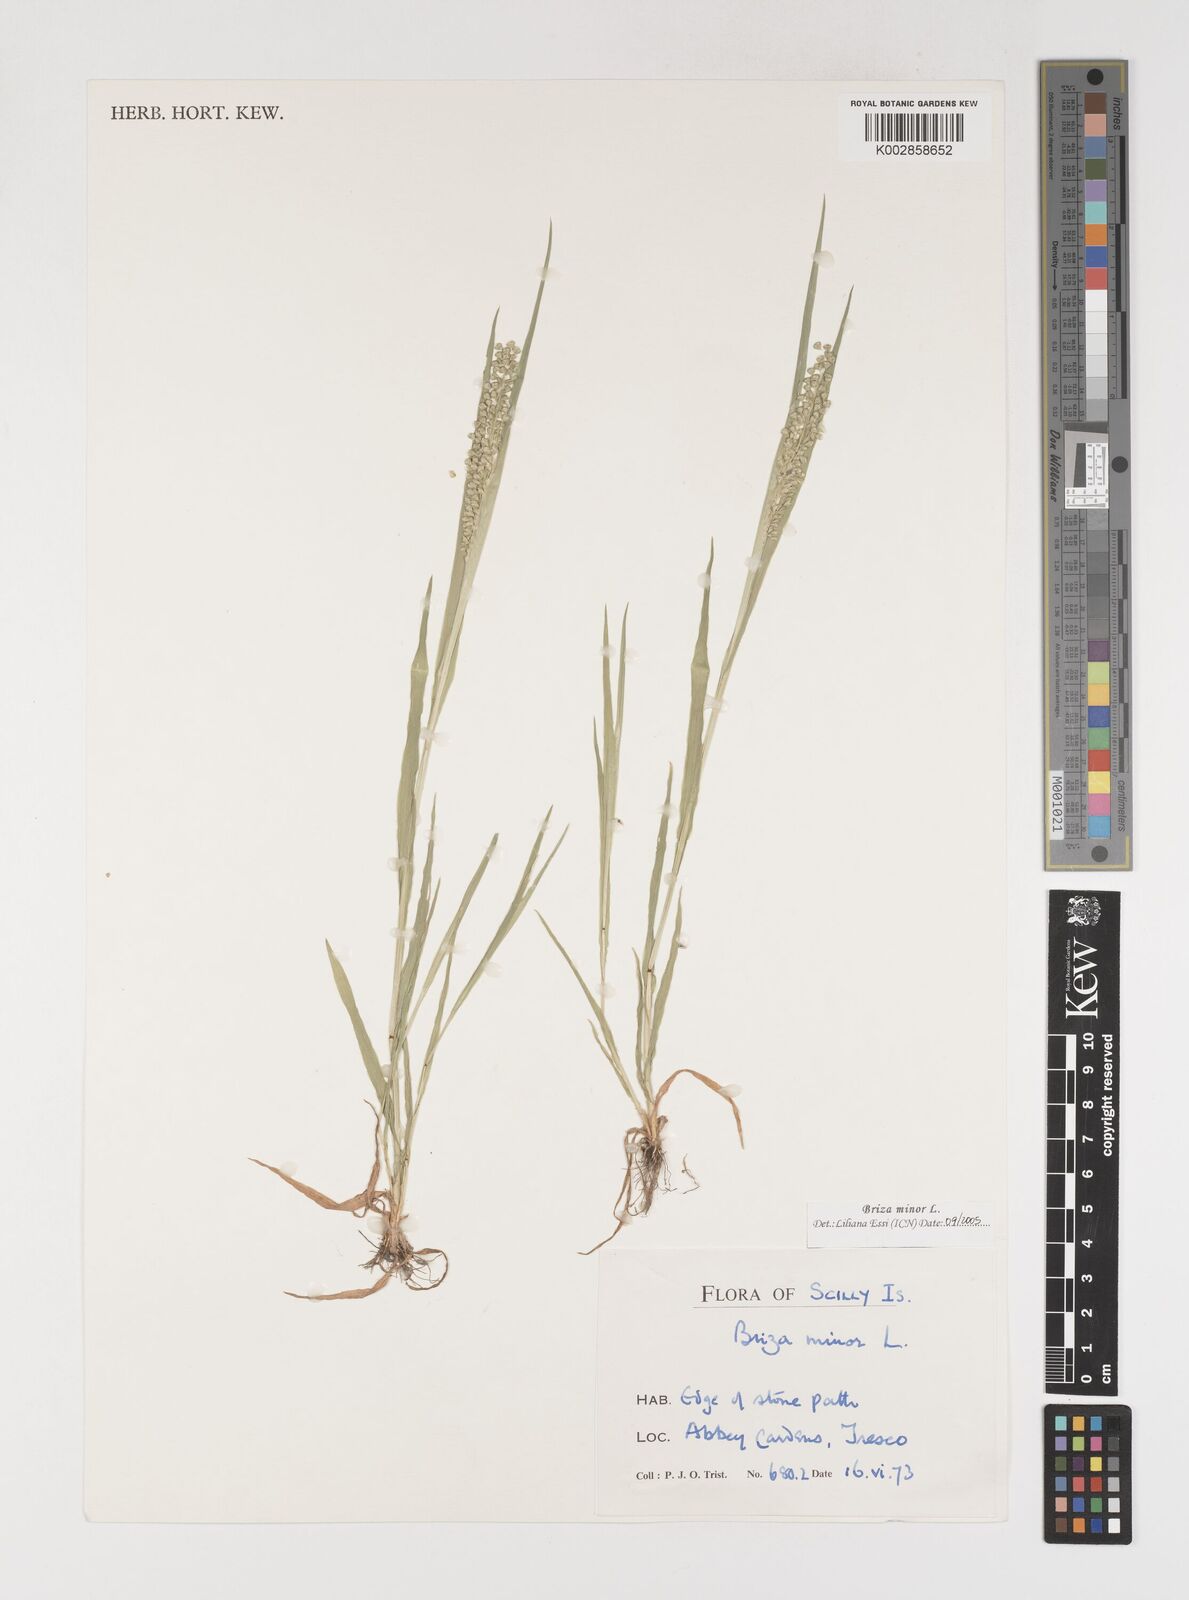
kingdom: Plantae
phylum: Tracheophyta
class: Liliopsida
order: Poales
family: Poaceae
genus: Briza
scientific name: Briza minor
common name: Lesser quaking-grass
